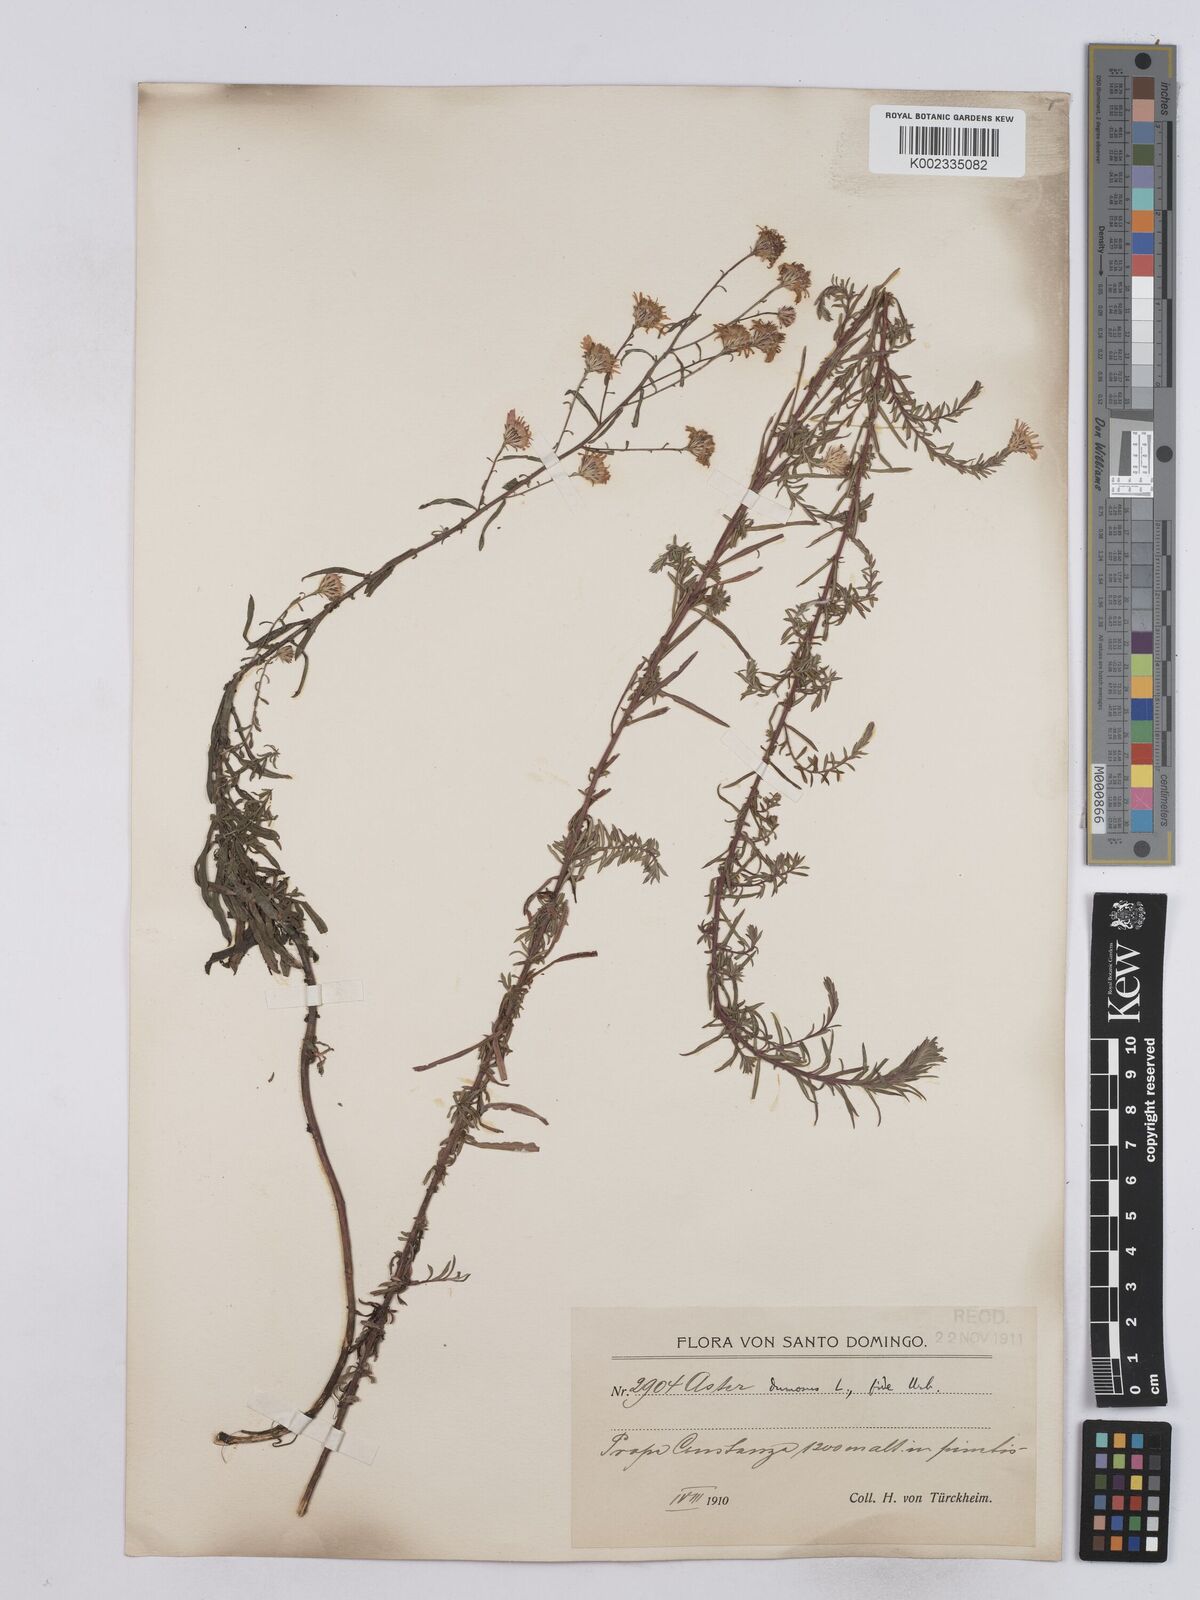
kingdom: Plantae
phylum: Tracheophyta
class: Magnoliopsida
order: Asterales
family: Asteraceae
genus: Symphyotrichum
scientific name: Symphyotrichum dumosum
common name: Bushy aster
